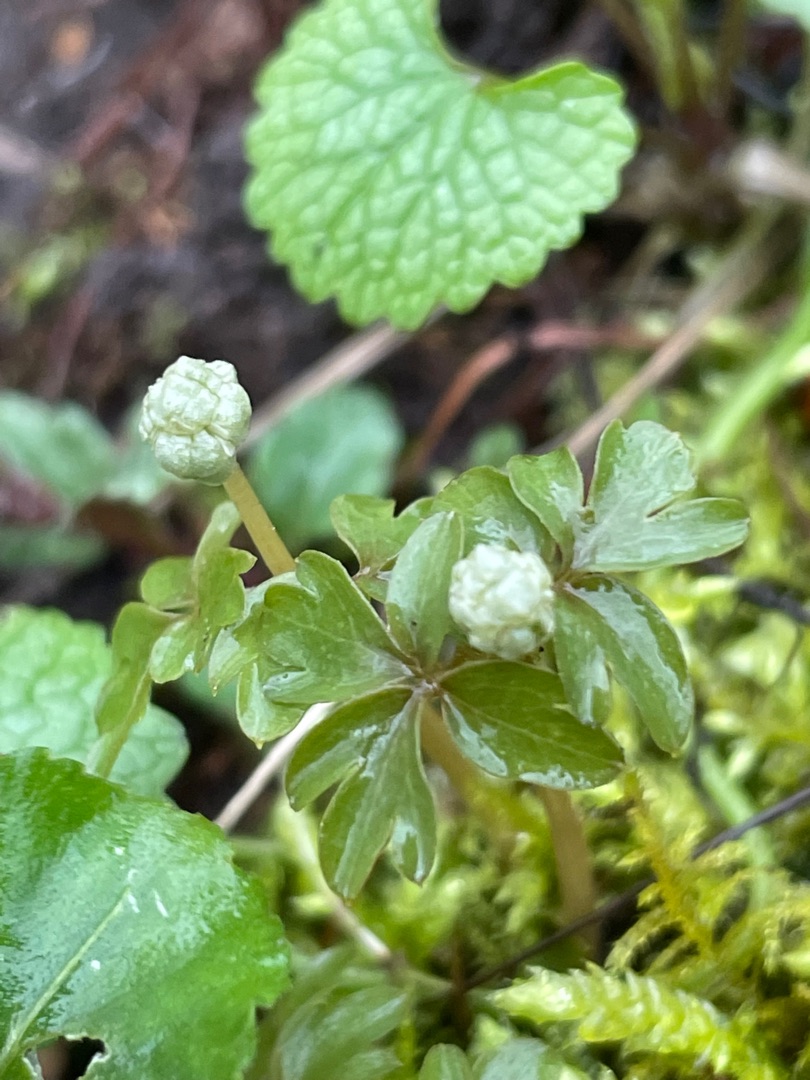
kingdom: Plantae
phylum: Tracheophyta
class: Magnoliopsida
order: Dipsacales
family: Viburnaceae
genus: Adoxa
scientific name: Adoxa moschatellina
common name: Desmerurt
